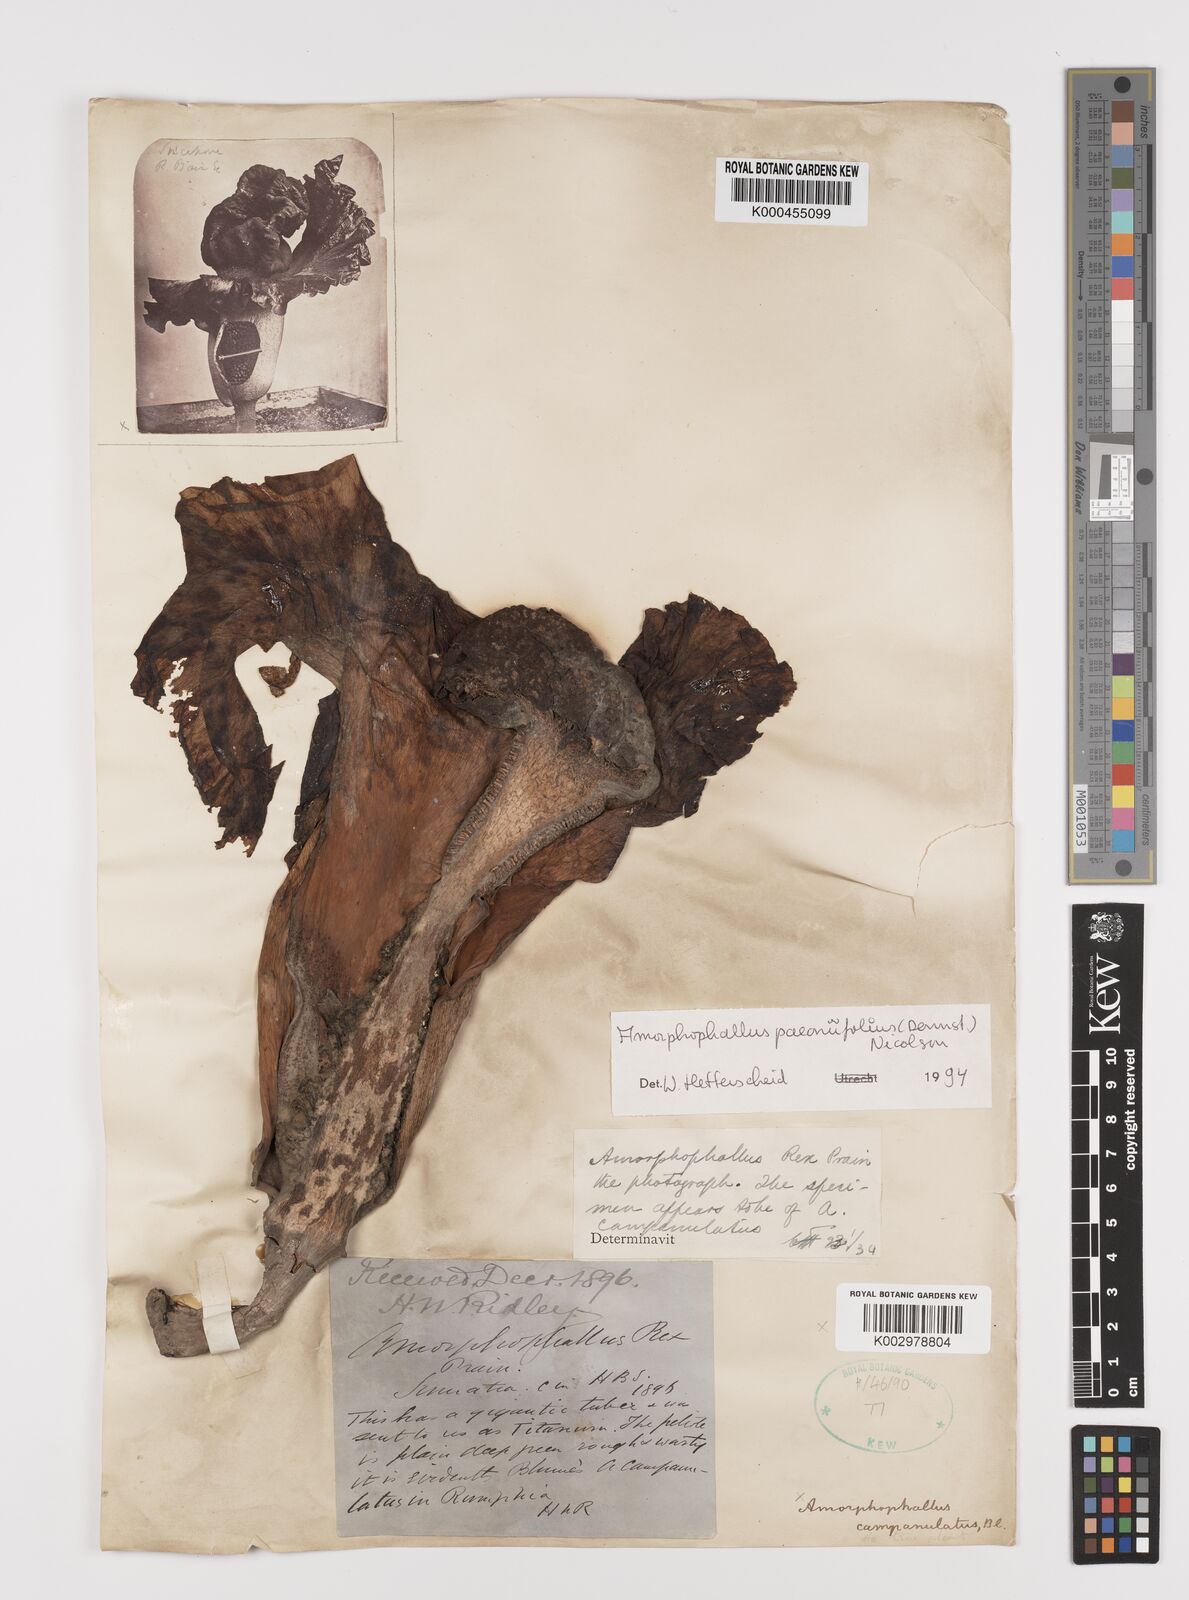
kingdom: Plantae
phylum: Tracheophyta
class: Liliopsida
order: Alismatales
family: Araceae
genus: Amorphophallus
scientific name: Amorphophallus
